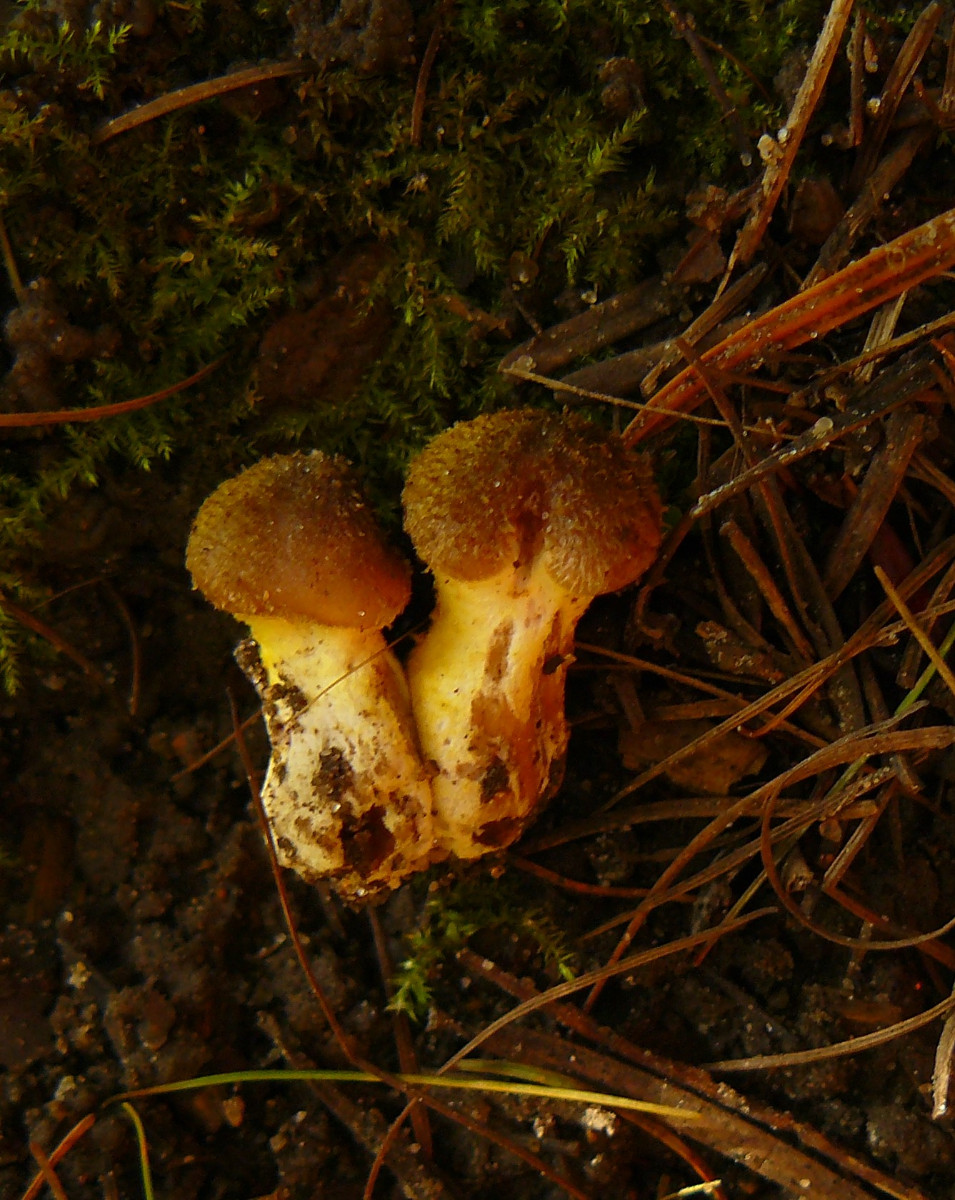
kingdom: Fungi
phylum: Basidiomycota
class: Agaricomycetes
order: Agaricales
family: Physalacriaceae
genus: Armillaria
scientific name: Armillaria lutea
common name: køllestokket honningsvamp
